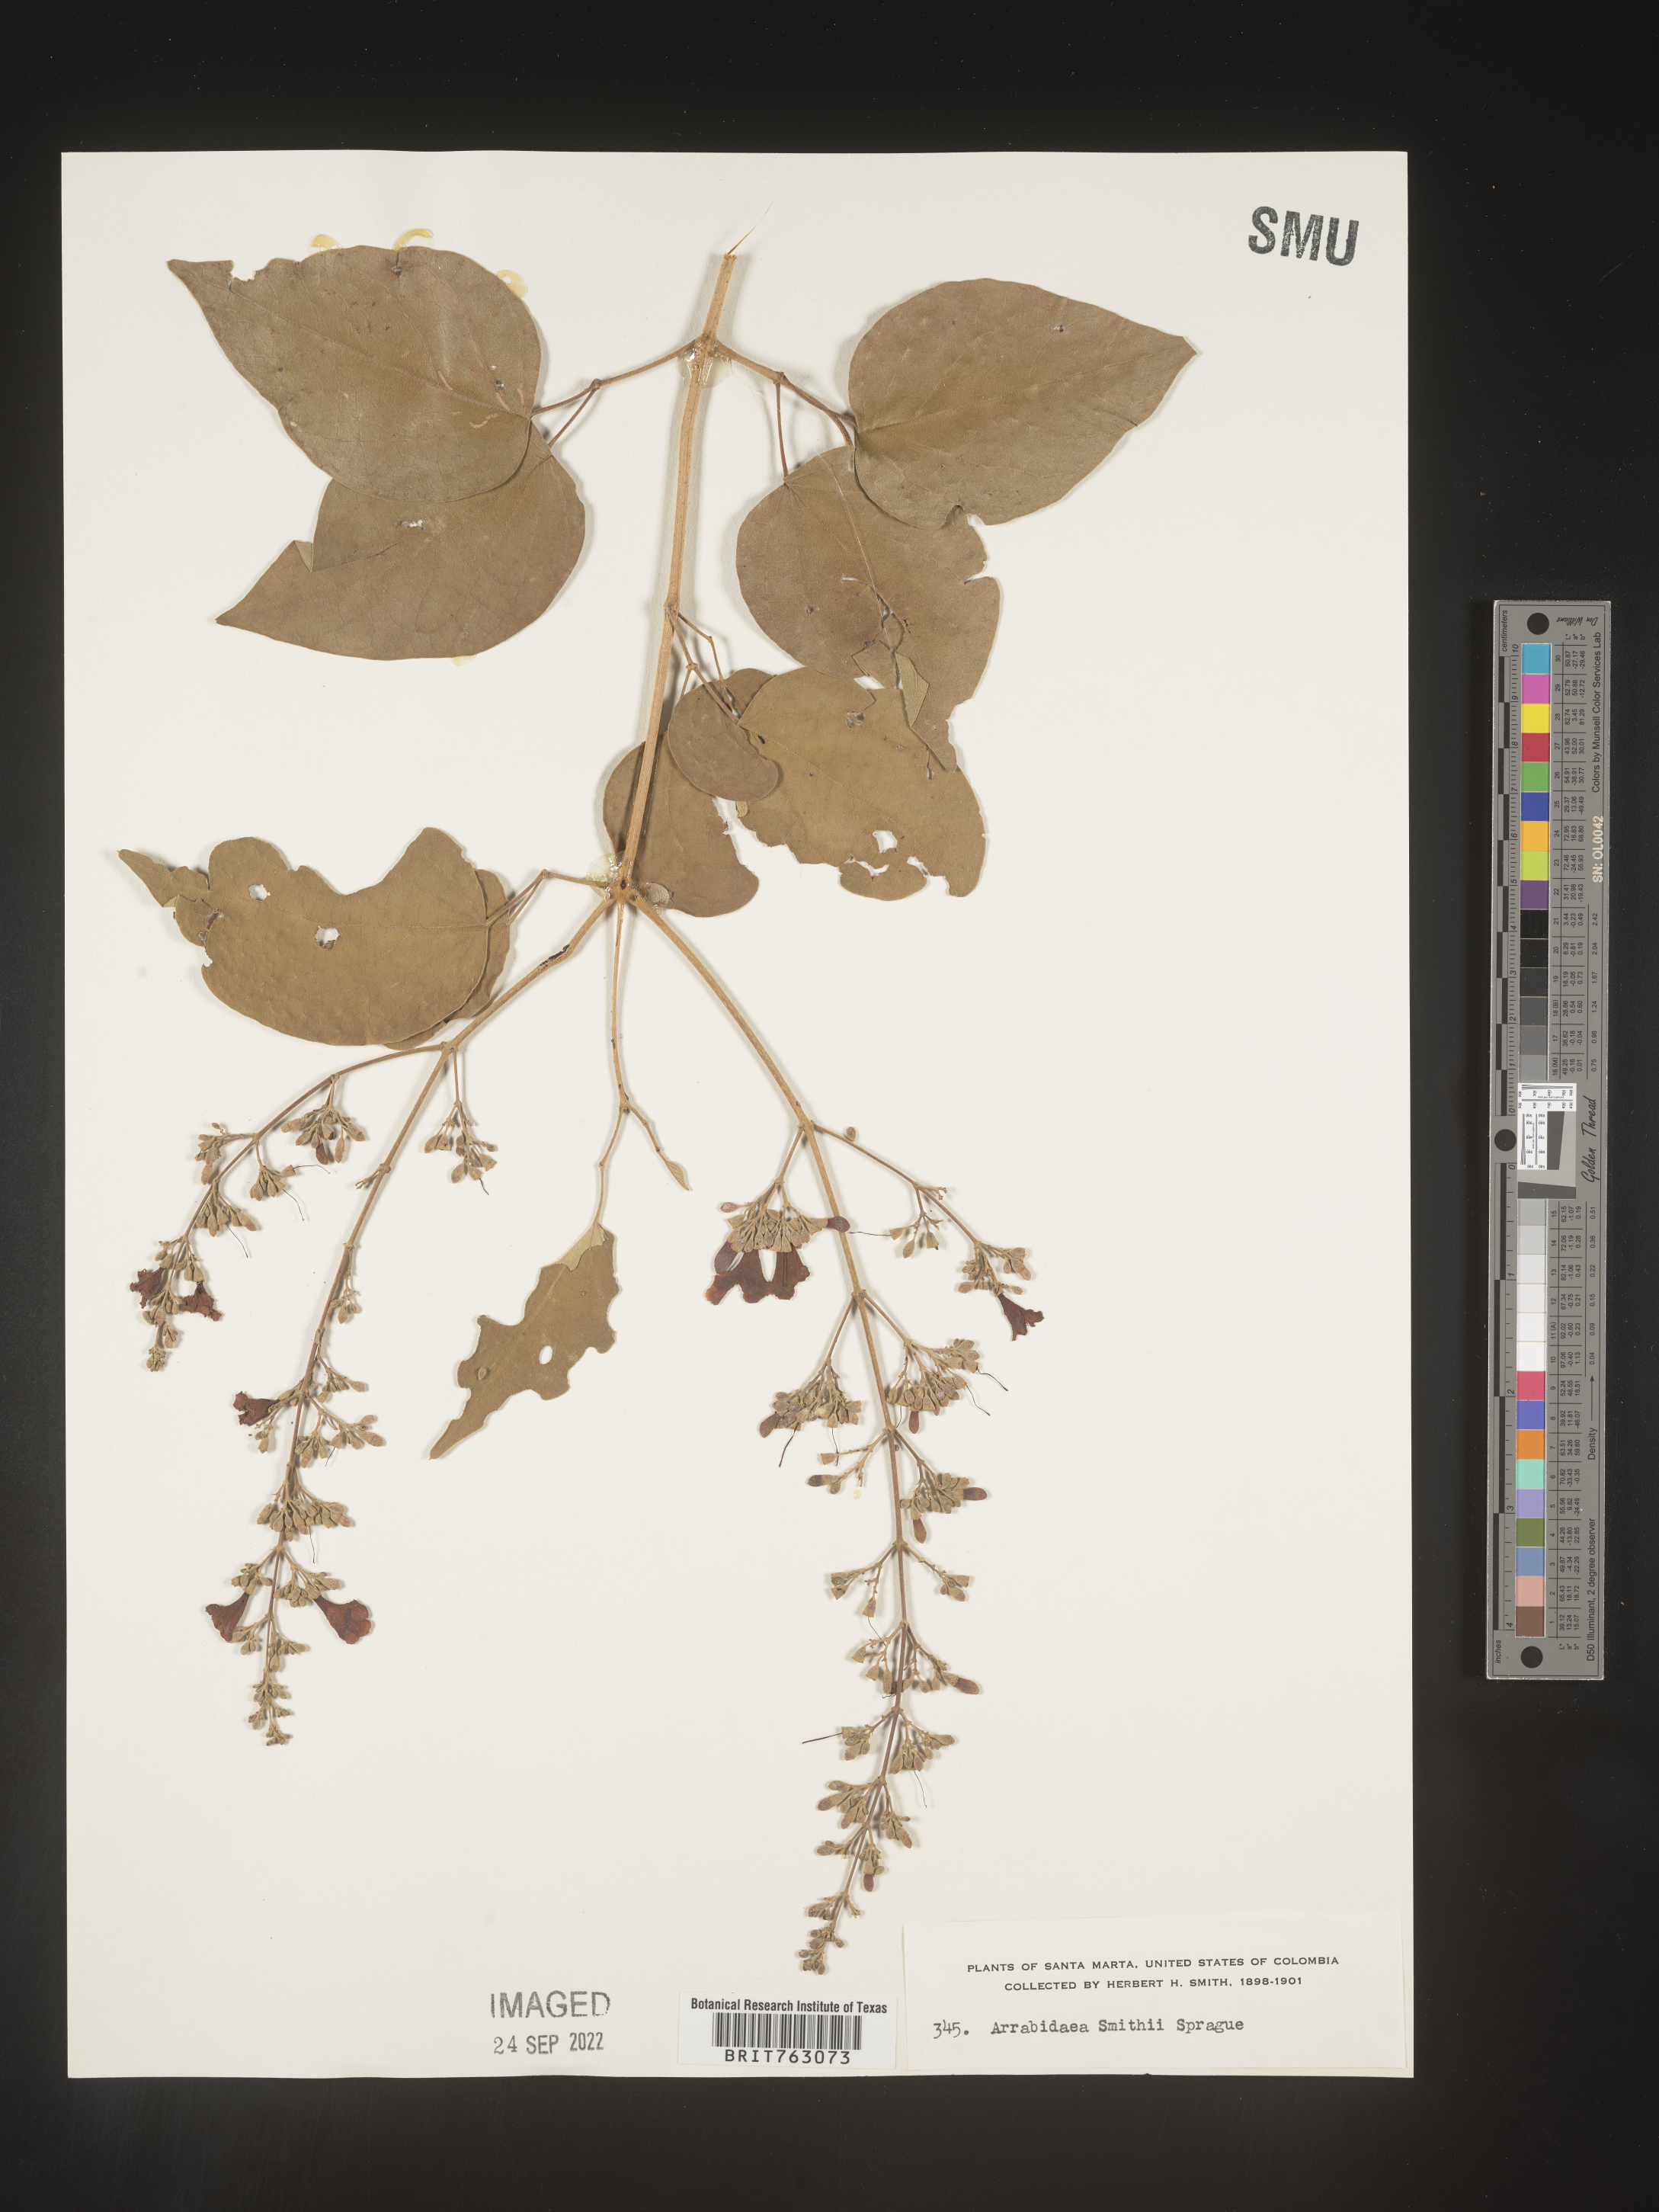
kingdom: Plantae
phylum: Tracheophyta
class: Magnoliopsida
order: Rosales
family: Rhamnaceae
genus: Arrabidaea
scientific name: Arrabidaea
